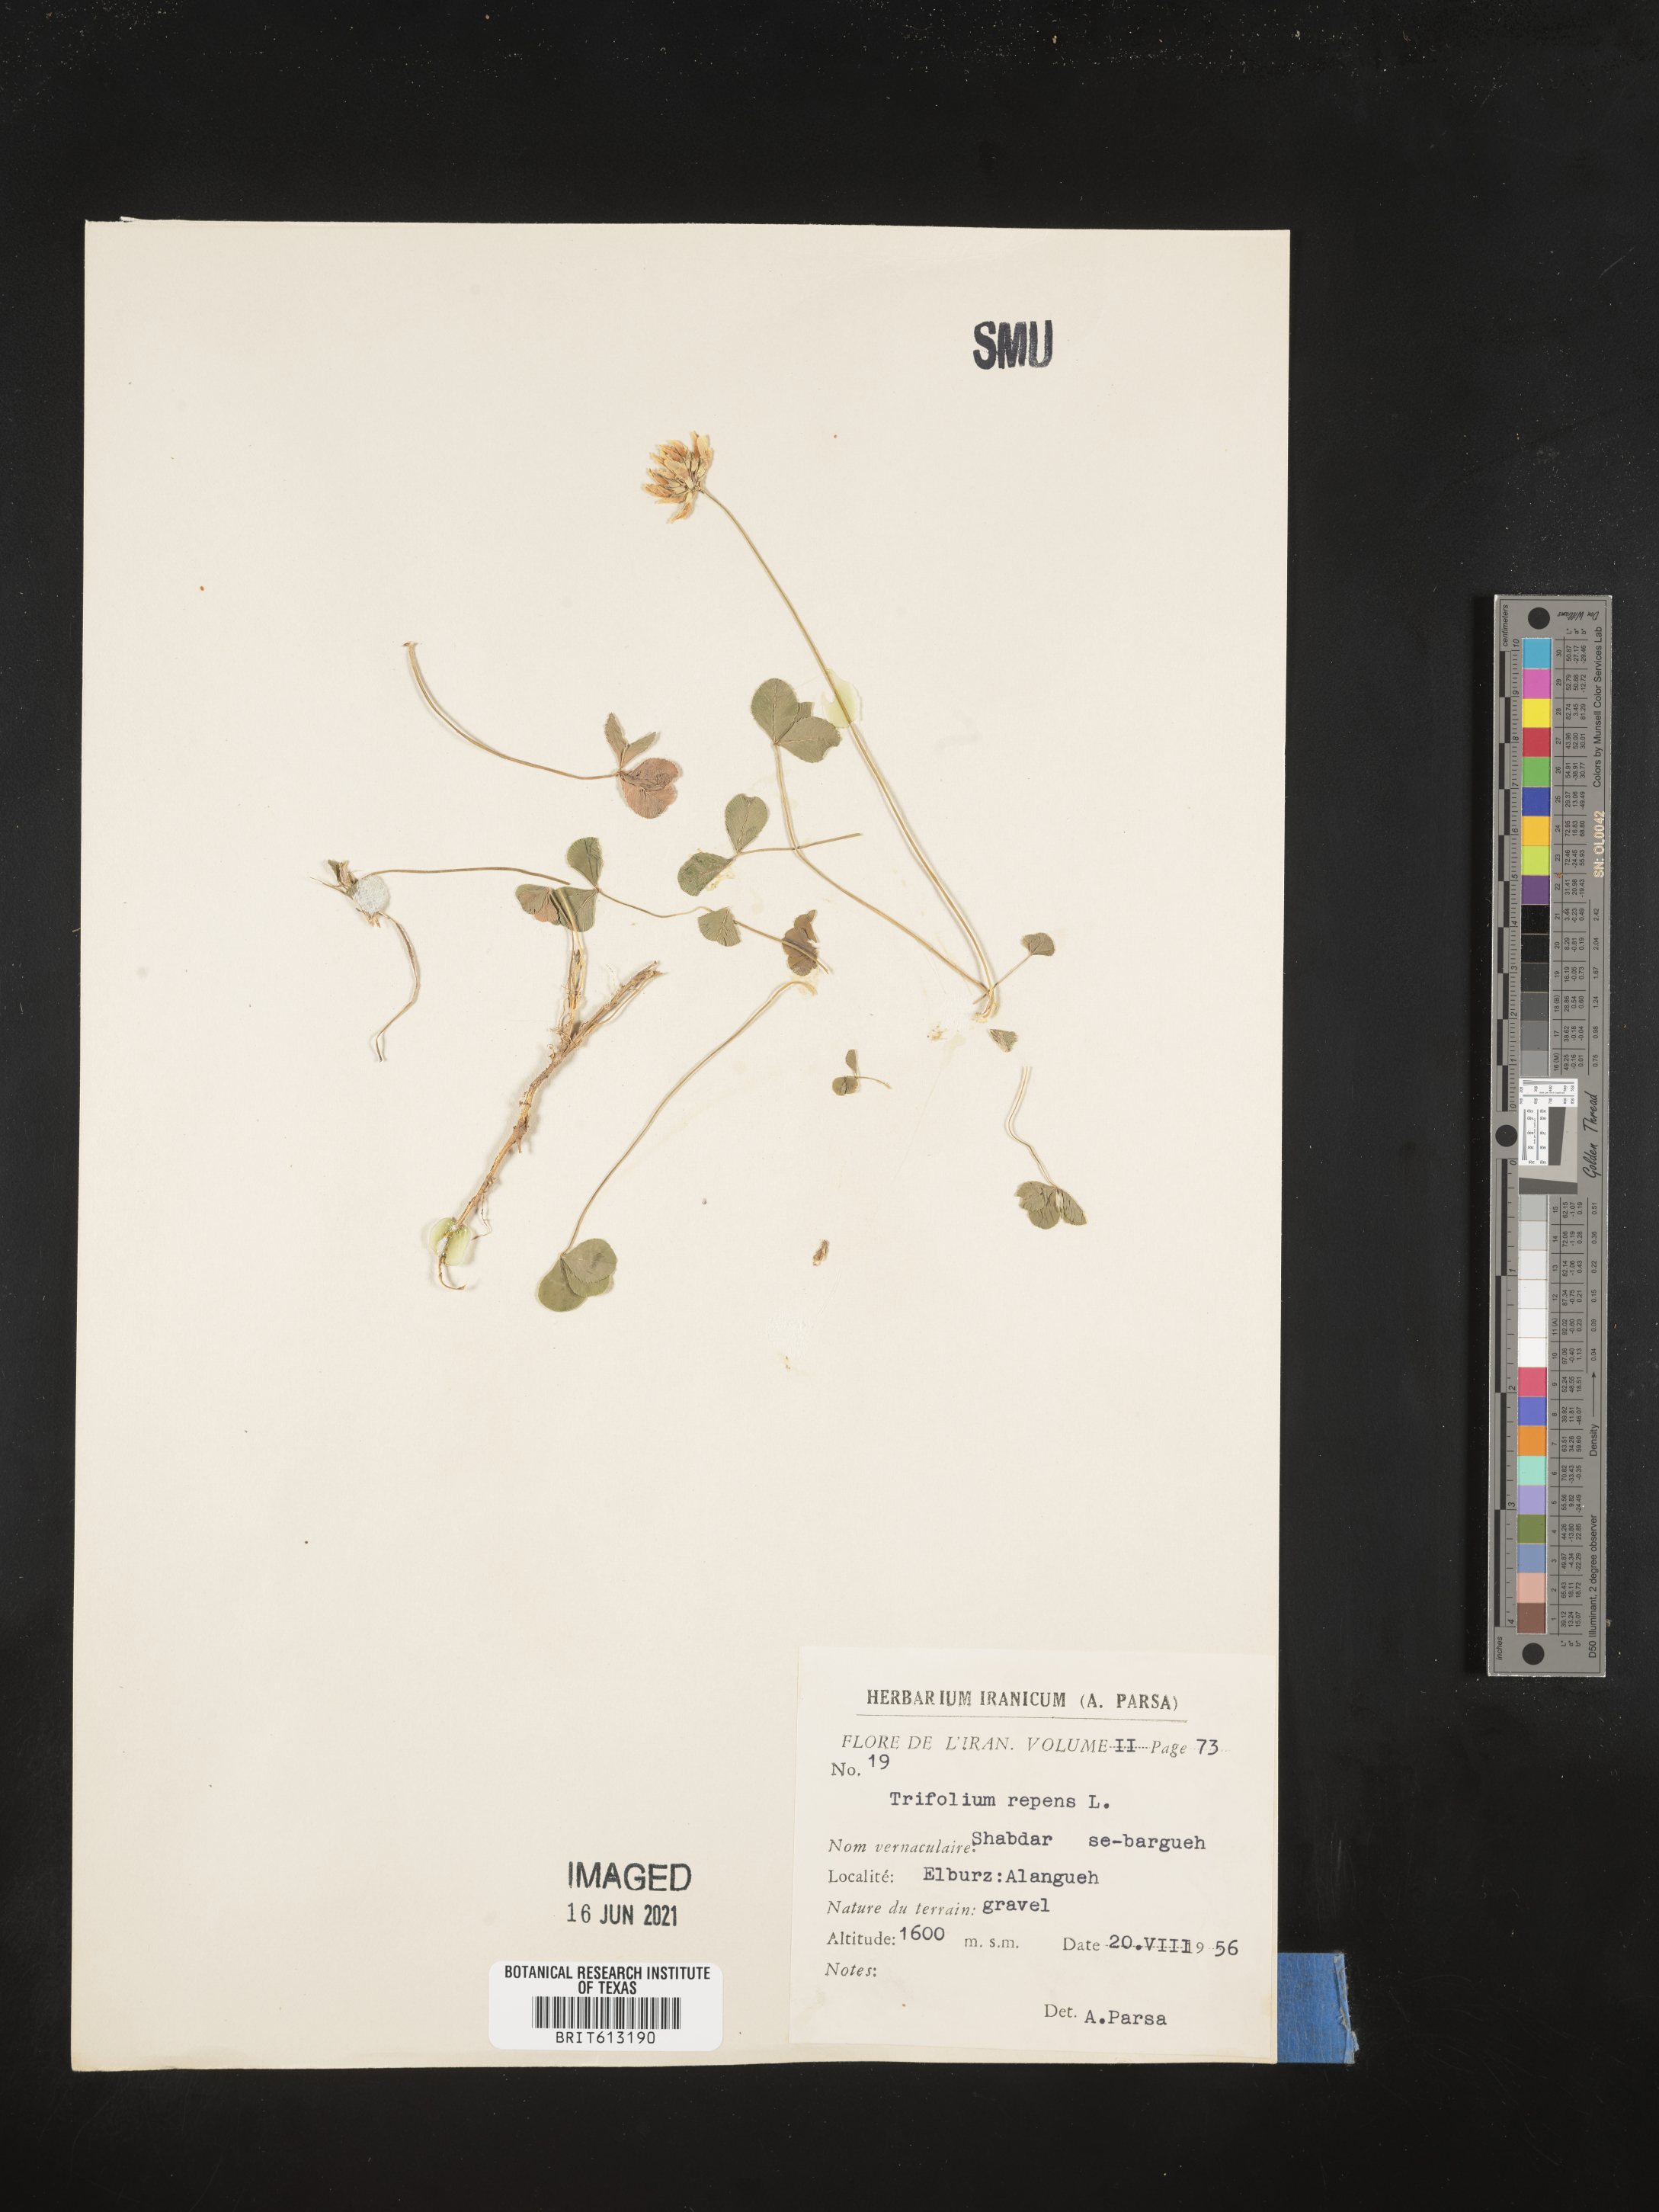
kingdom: Plantae
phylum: Tracheophyta
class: Magnoliopsida
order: Fabales
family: Fabaceae
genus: Trifolium
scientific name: Trifolium repens
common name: White clover
